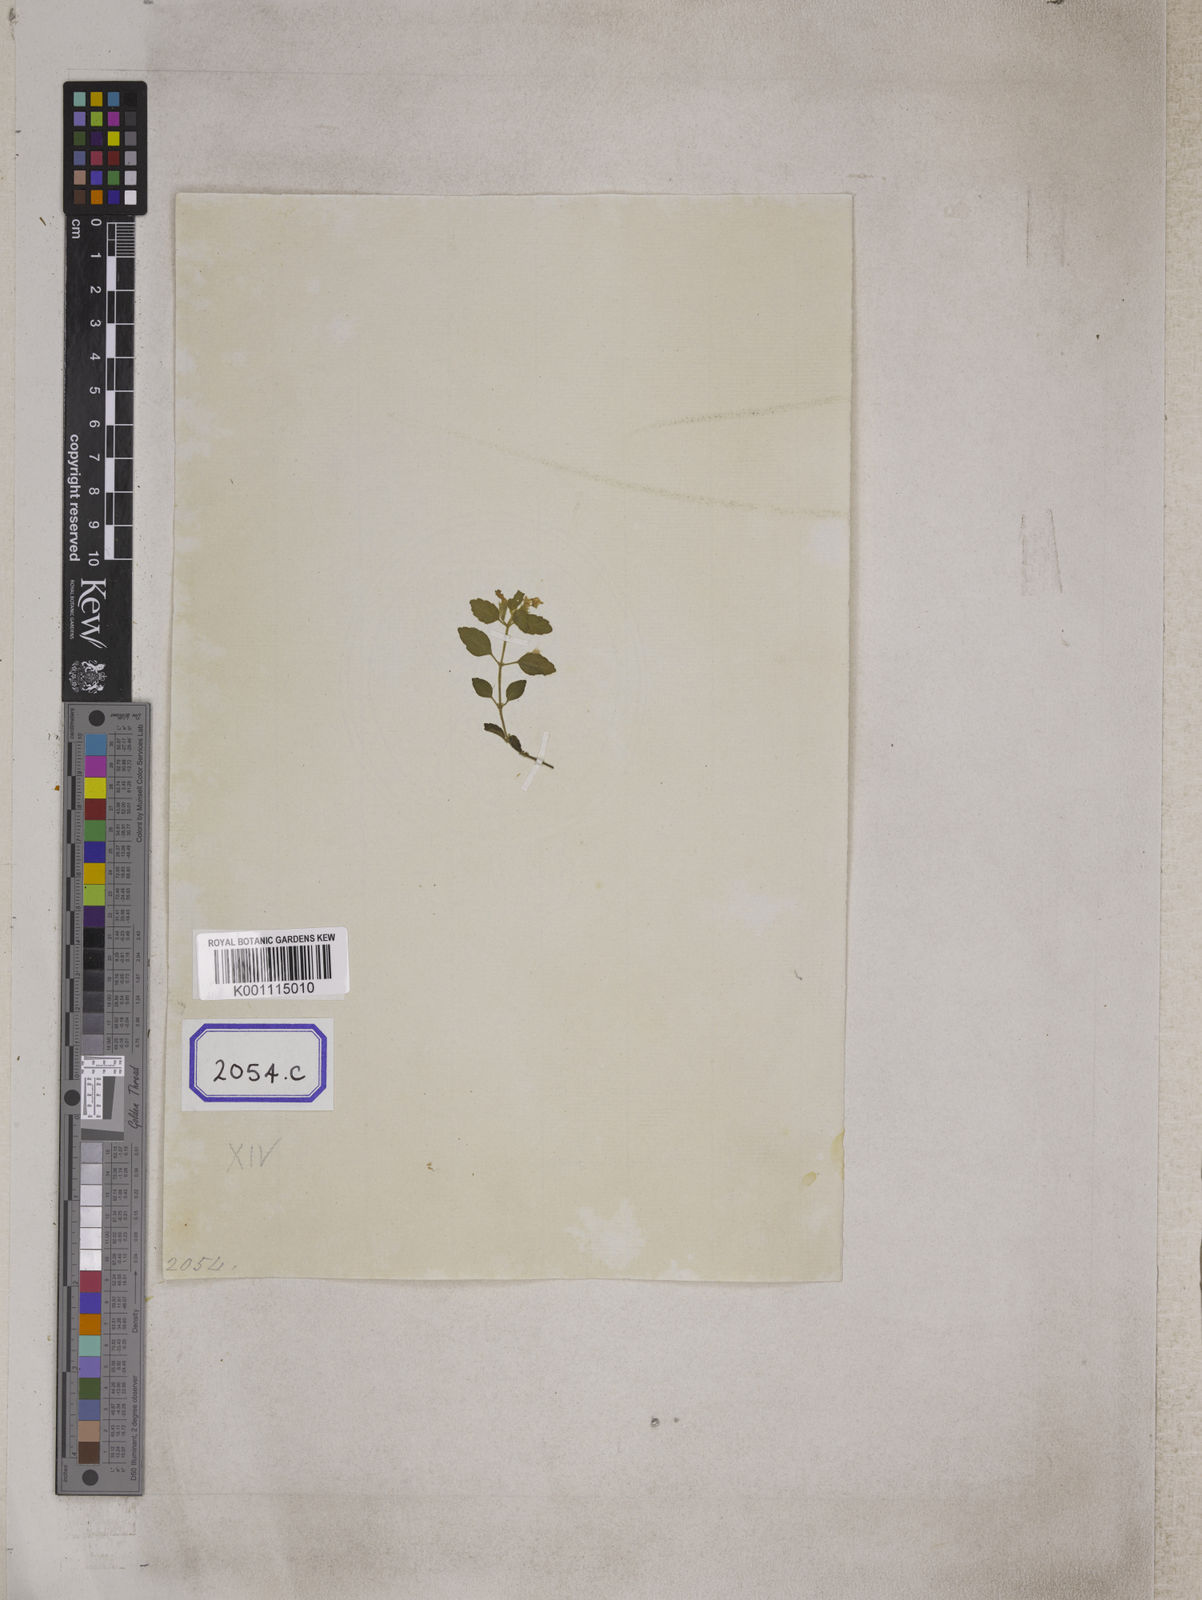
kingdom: Plantae
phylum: Tracheophyta
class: Magnoliopsida
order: Lamiales
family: Lamiaceae
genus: Leucas
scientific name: Leucas
